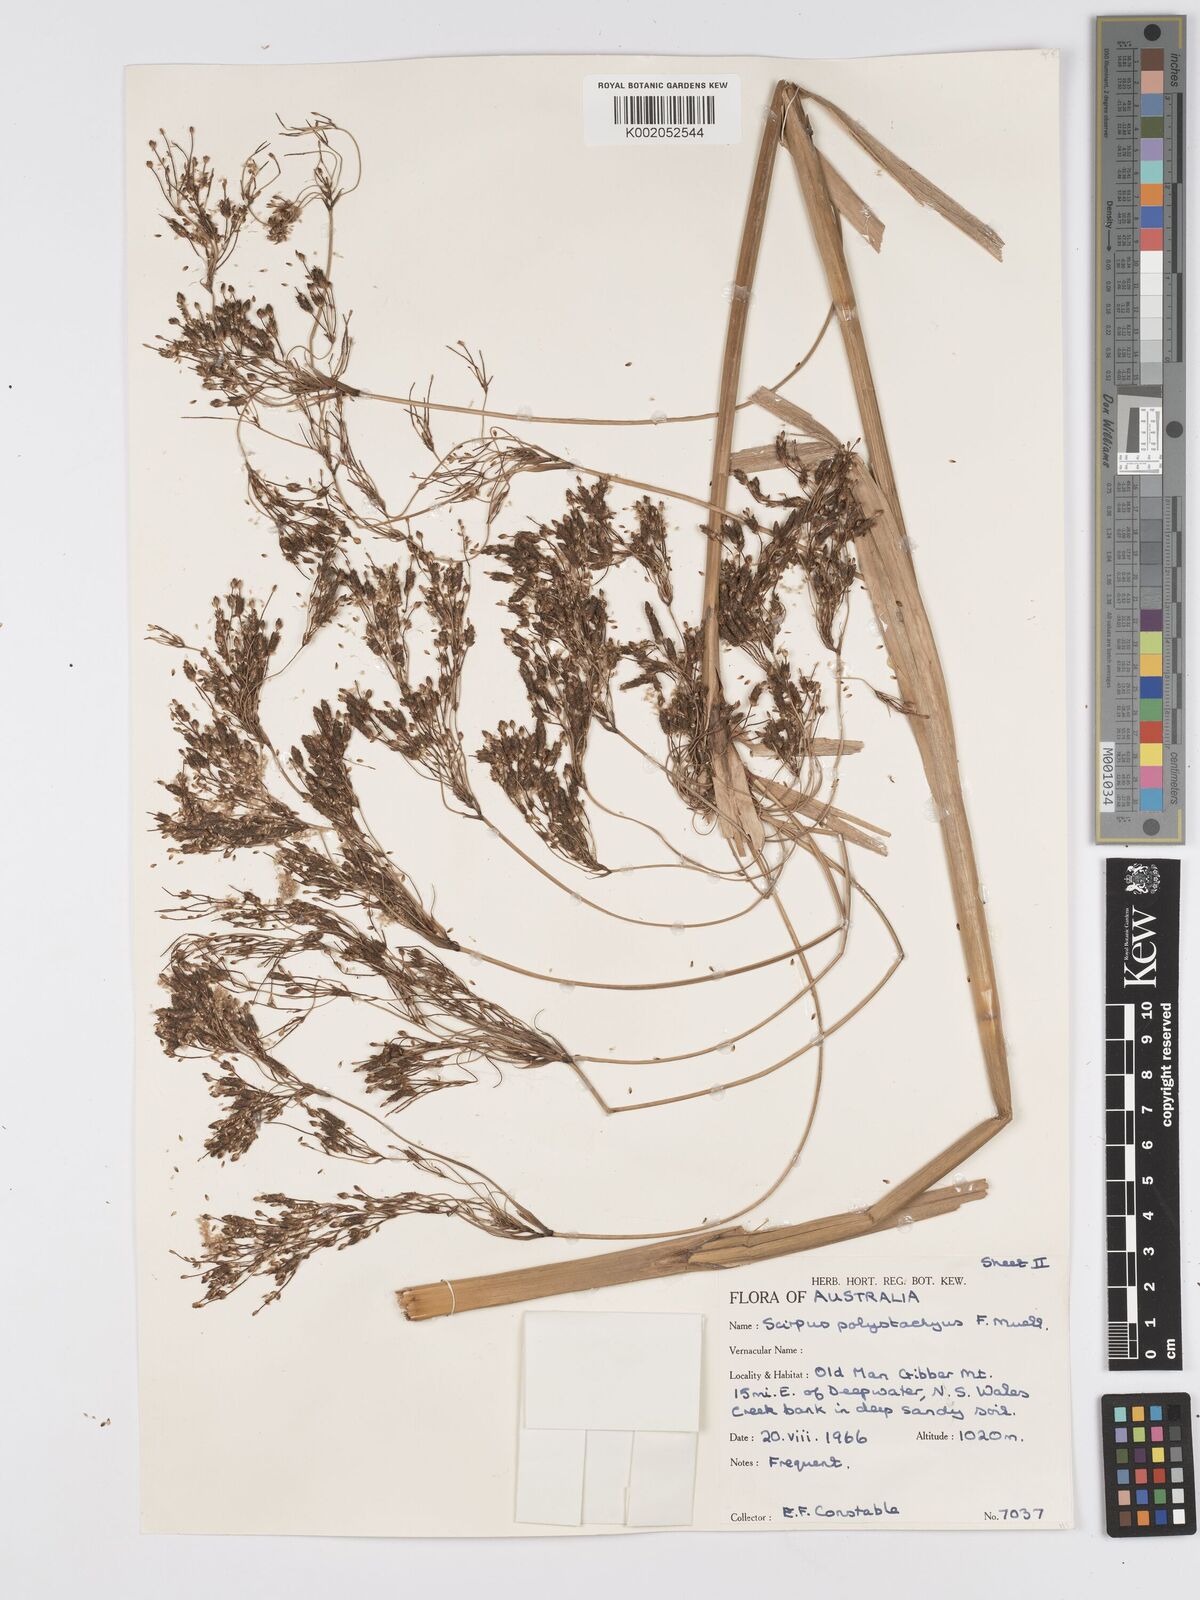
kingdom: Plantae
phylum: Tracheophyta
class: Liliopsida
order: Poales
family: Cyperaceae
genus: Scirpus
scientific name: Scirpus polystachyus
